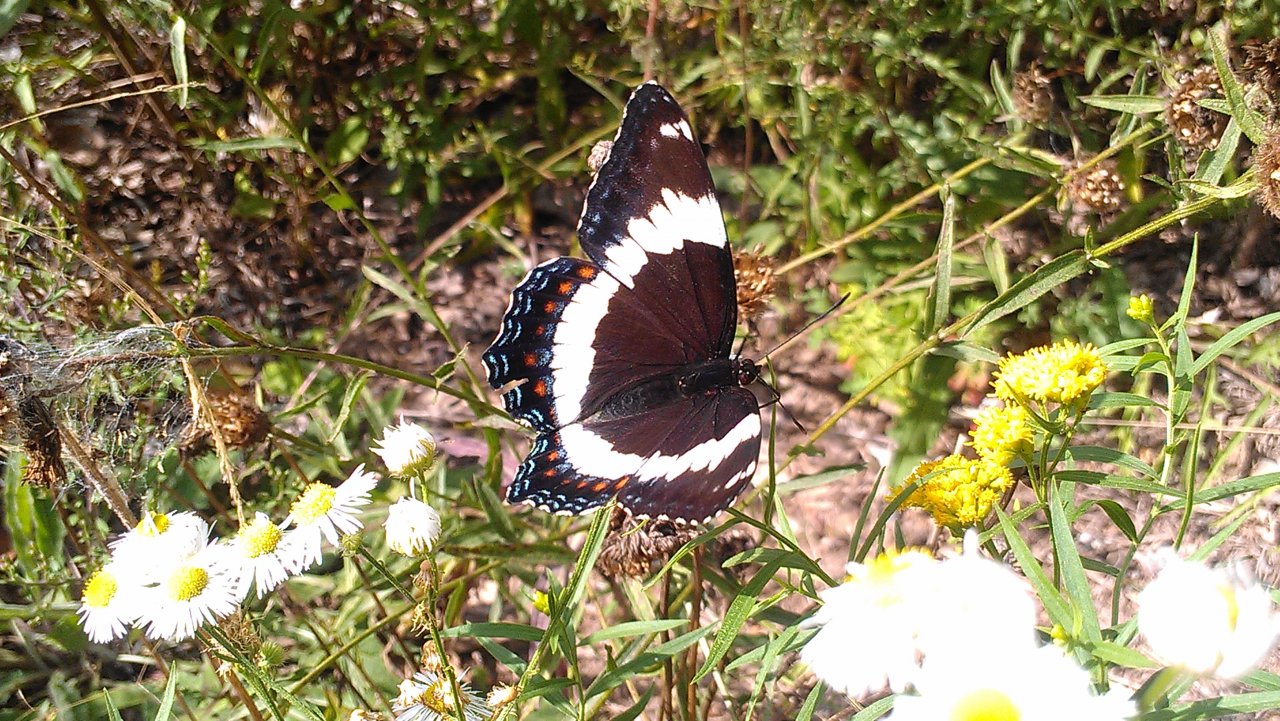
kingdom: Animalia
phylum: Arthropoda
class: Insecta
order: Lepidoptera
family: Nymphalidae
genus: Limenitis
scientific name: Limenitis arthemis
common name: Red-spotted Admiral
